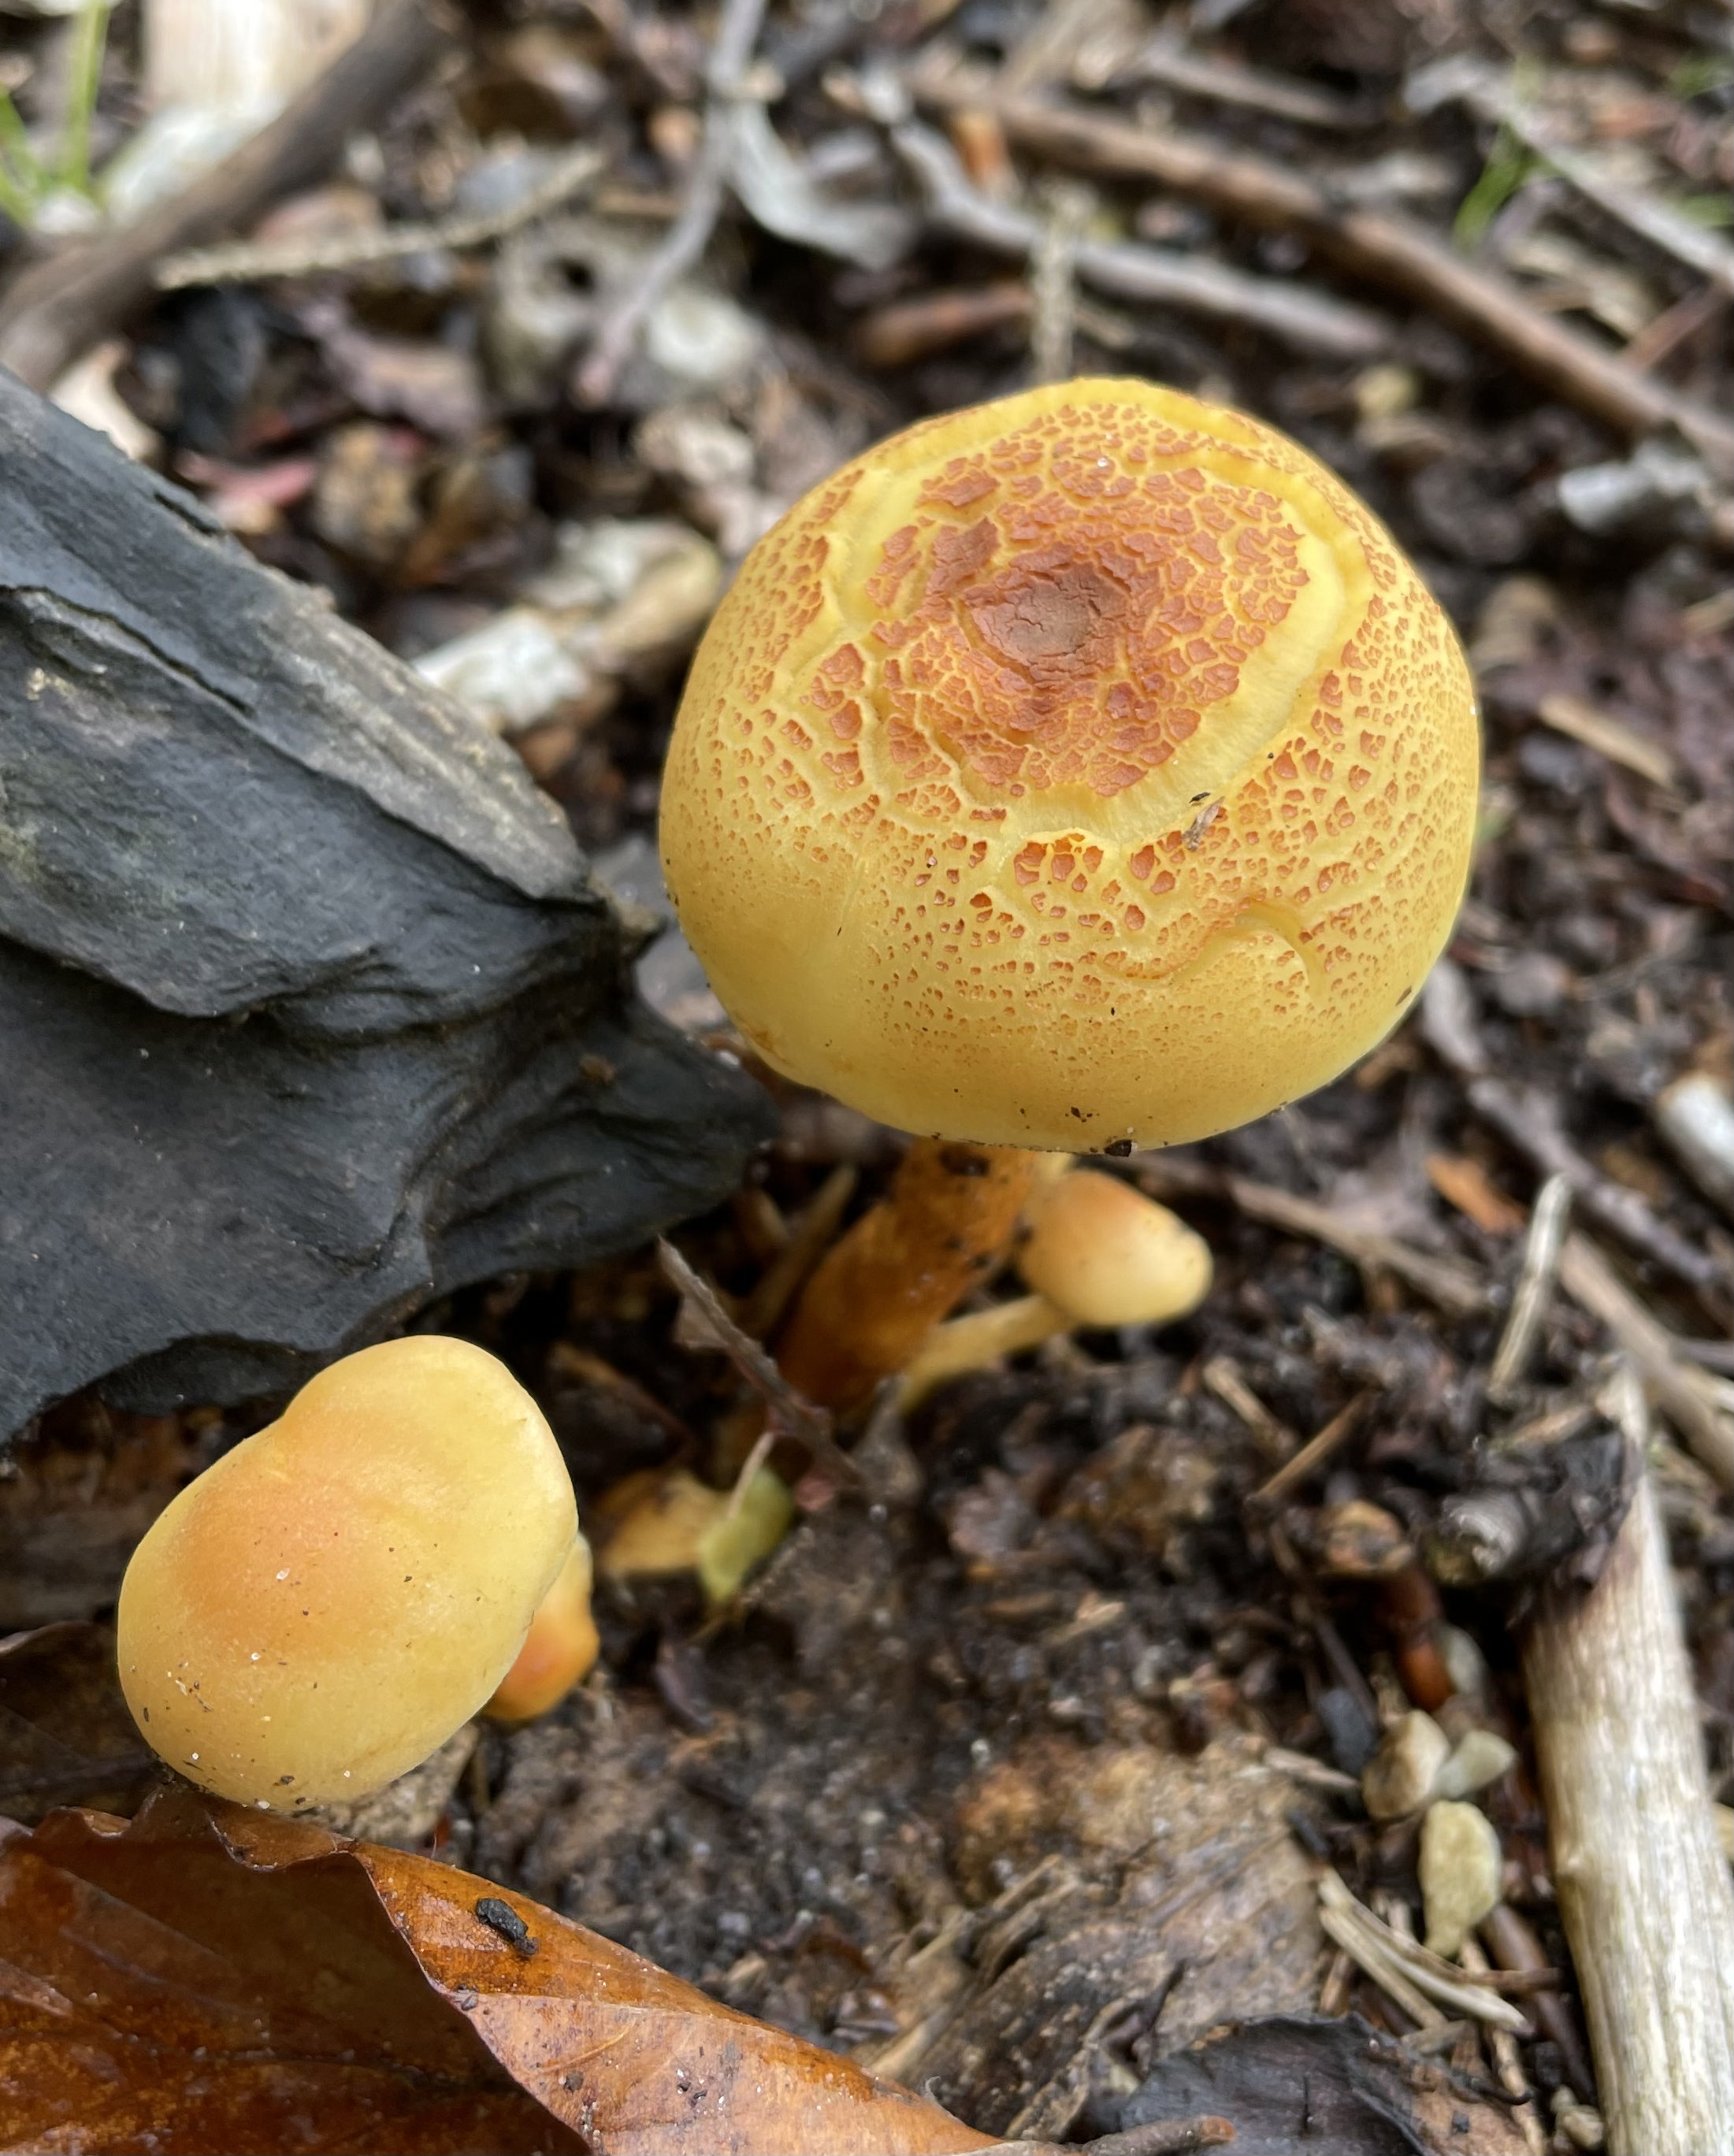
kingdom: Fungi
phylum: Basidiomycota
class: Agaricomycetes
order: Agaricales
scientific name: Agaricales
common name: champignonordenen
